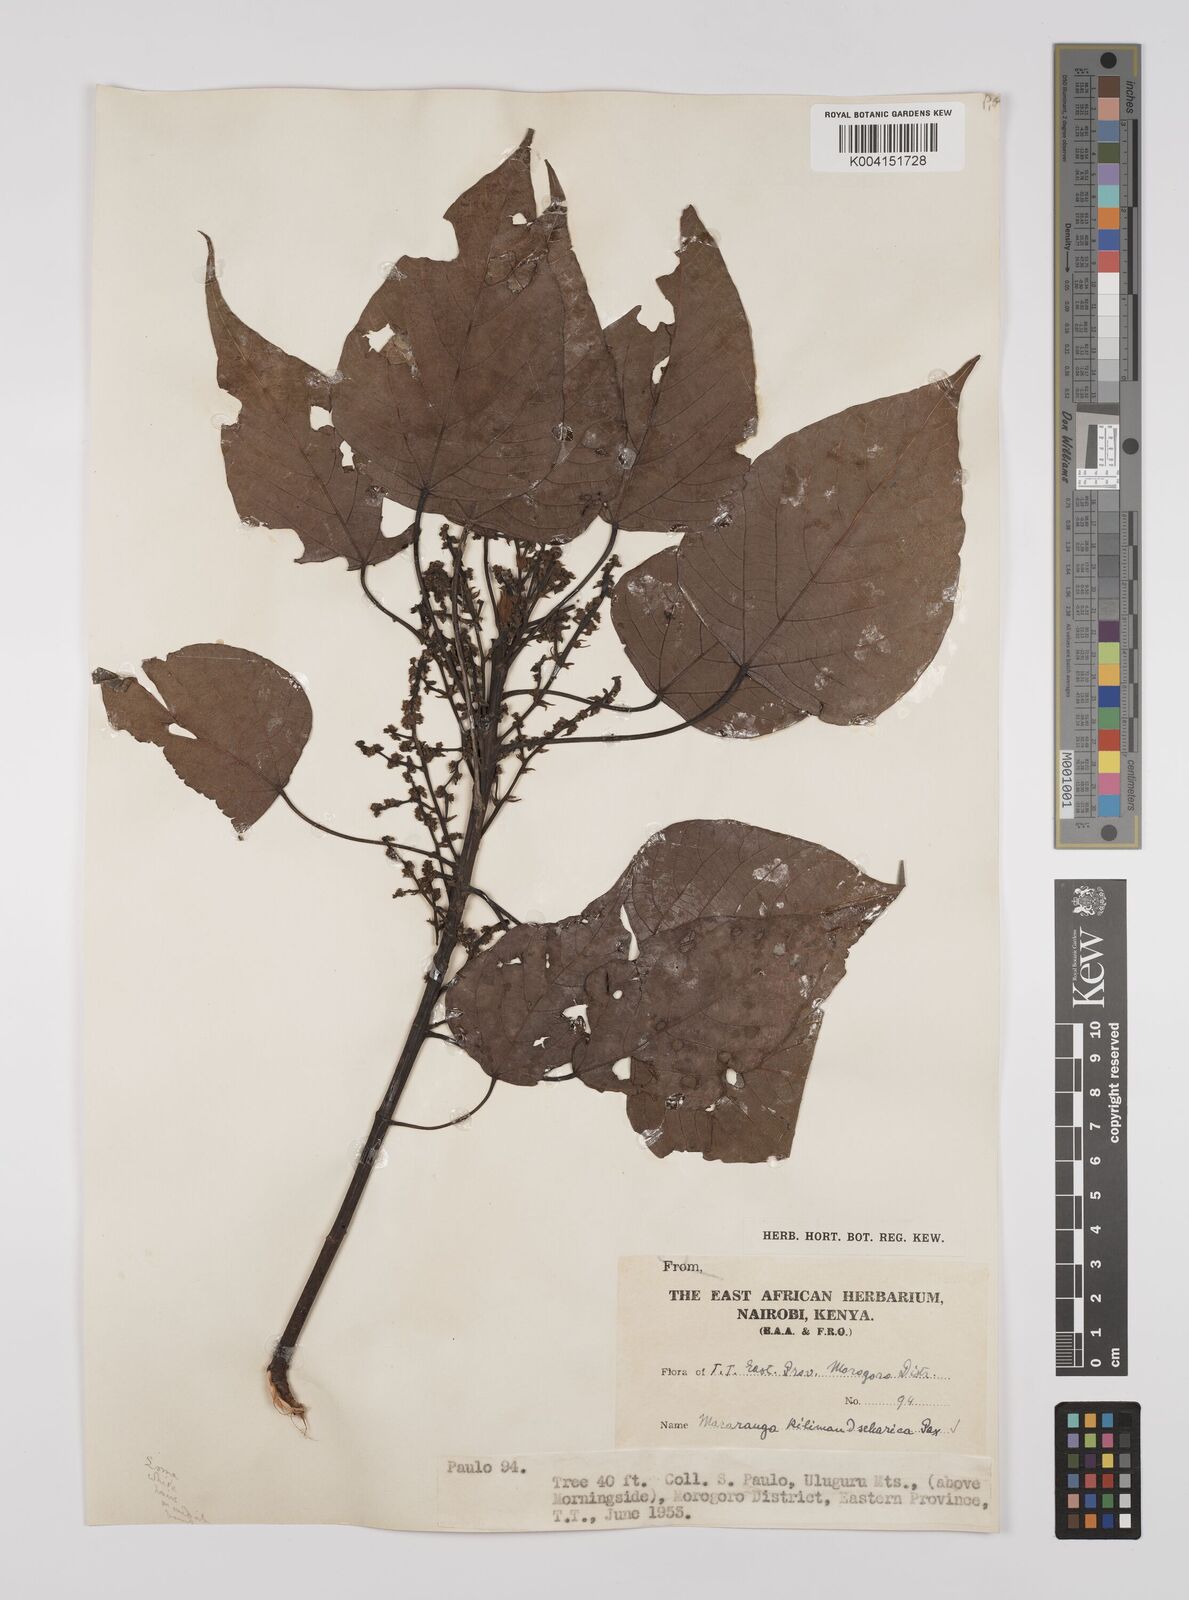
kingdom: Plantae
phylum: Tracheophyta
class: Magnoliopsida
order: Malpighiales
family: Euphorbiaceae
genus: Macaranga
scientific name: Macaranga kilimandscharica
